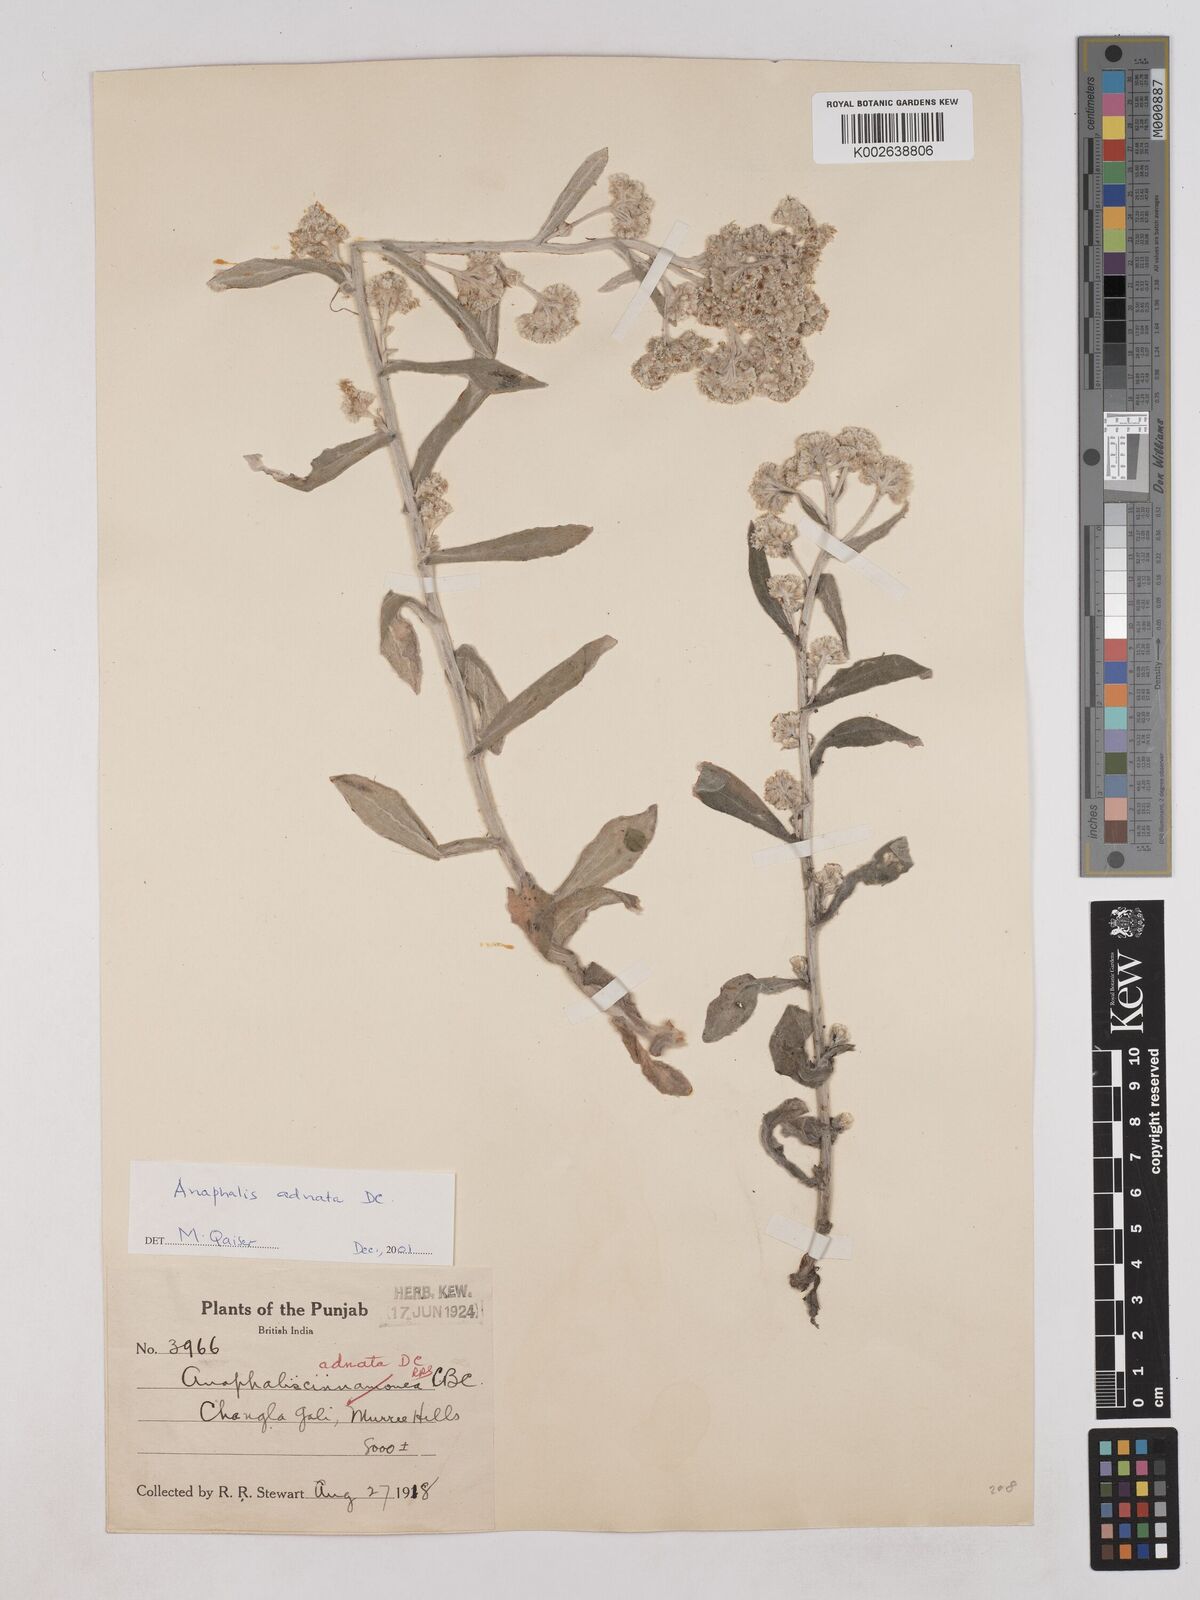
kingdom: Plantae
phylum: Tracheophyta
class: Magnoliopsida
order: Asterales
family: Asteraceae
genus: Pseudognaphalium
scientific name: Pseudognaphalium adnatum
